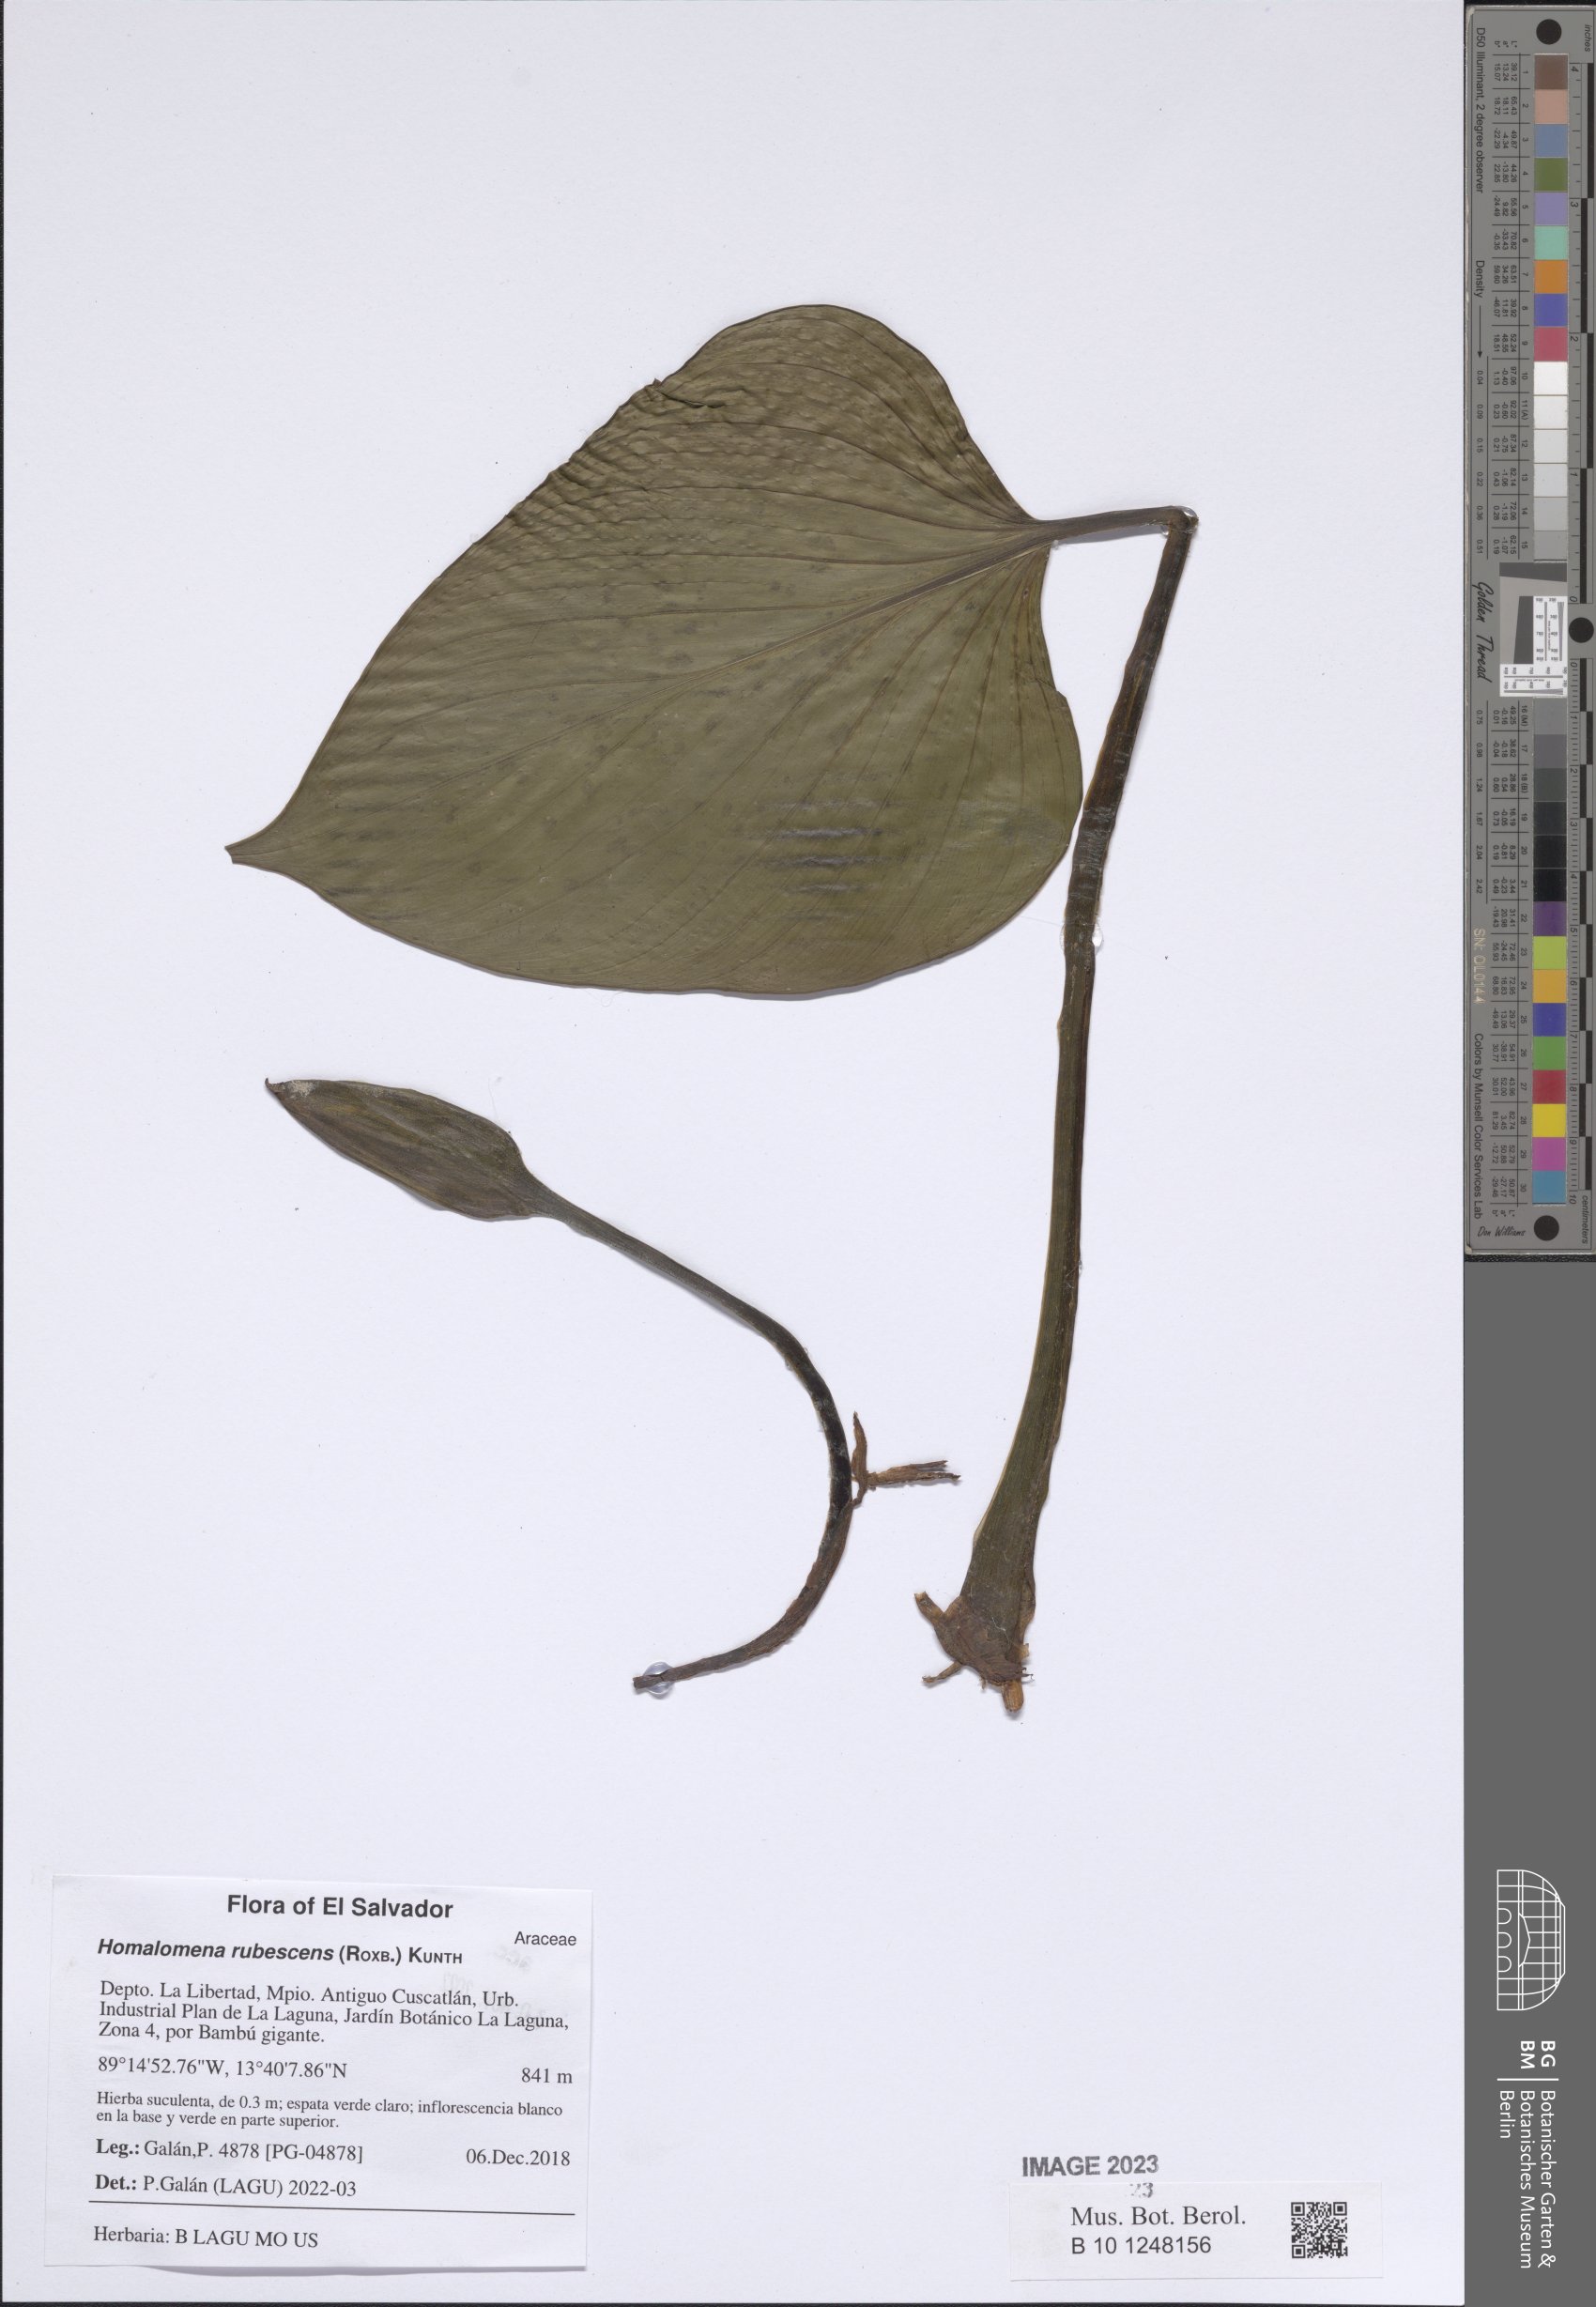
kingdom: Plantae
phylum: Tracheophyta
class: Liliopsida
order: Alismatales
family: Araceae
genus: Homalomena
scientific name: Homalomena rubescens
